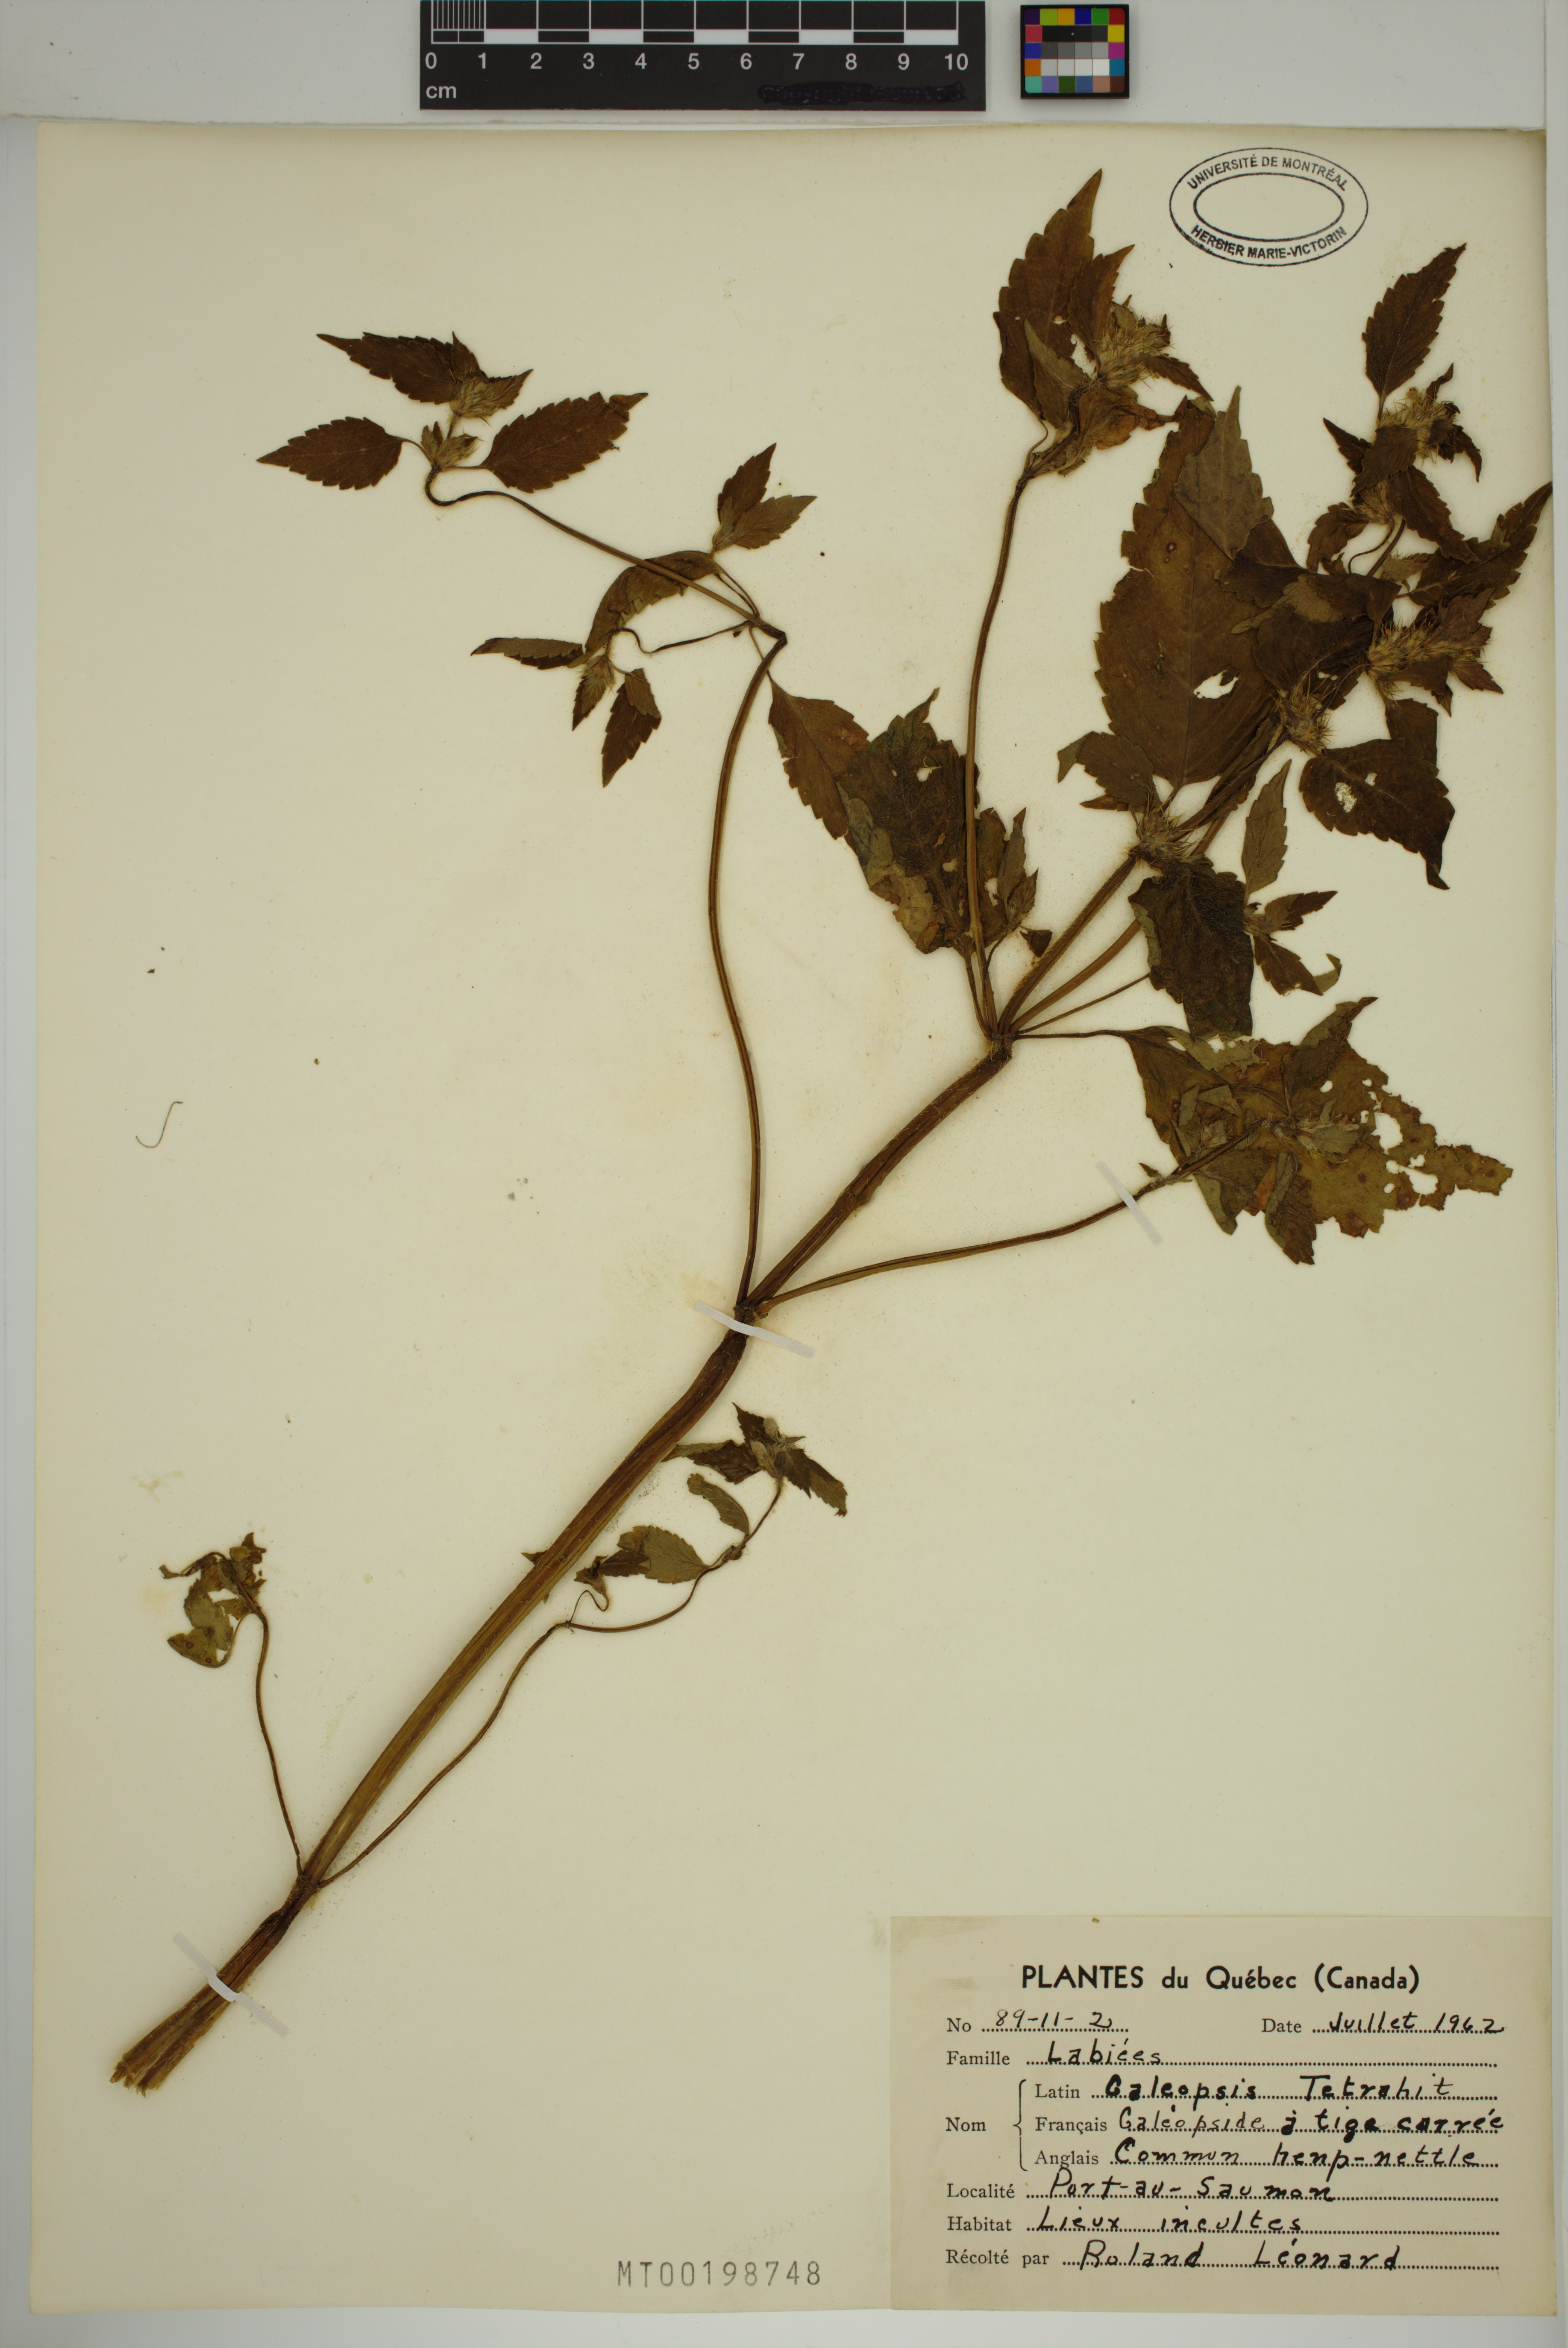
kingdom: Plantae
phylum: Tracheophyta
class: Magnoliopsida
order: Lamiales
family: Lamiaceae
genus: Galeopsis
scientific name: Galeopsis tetrahit
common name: Common hemp-nettle
